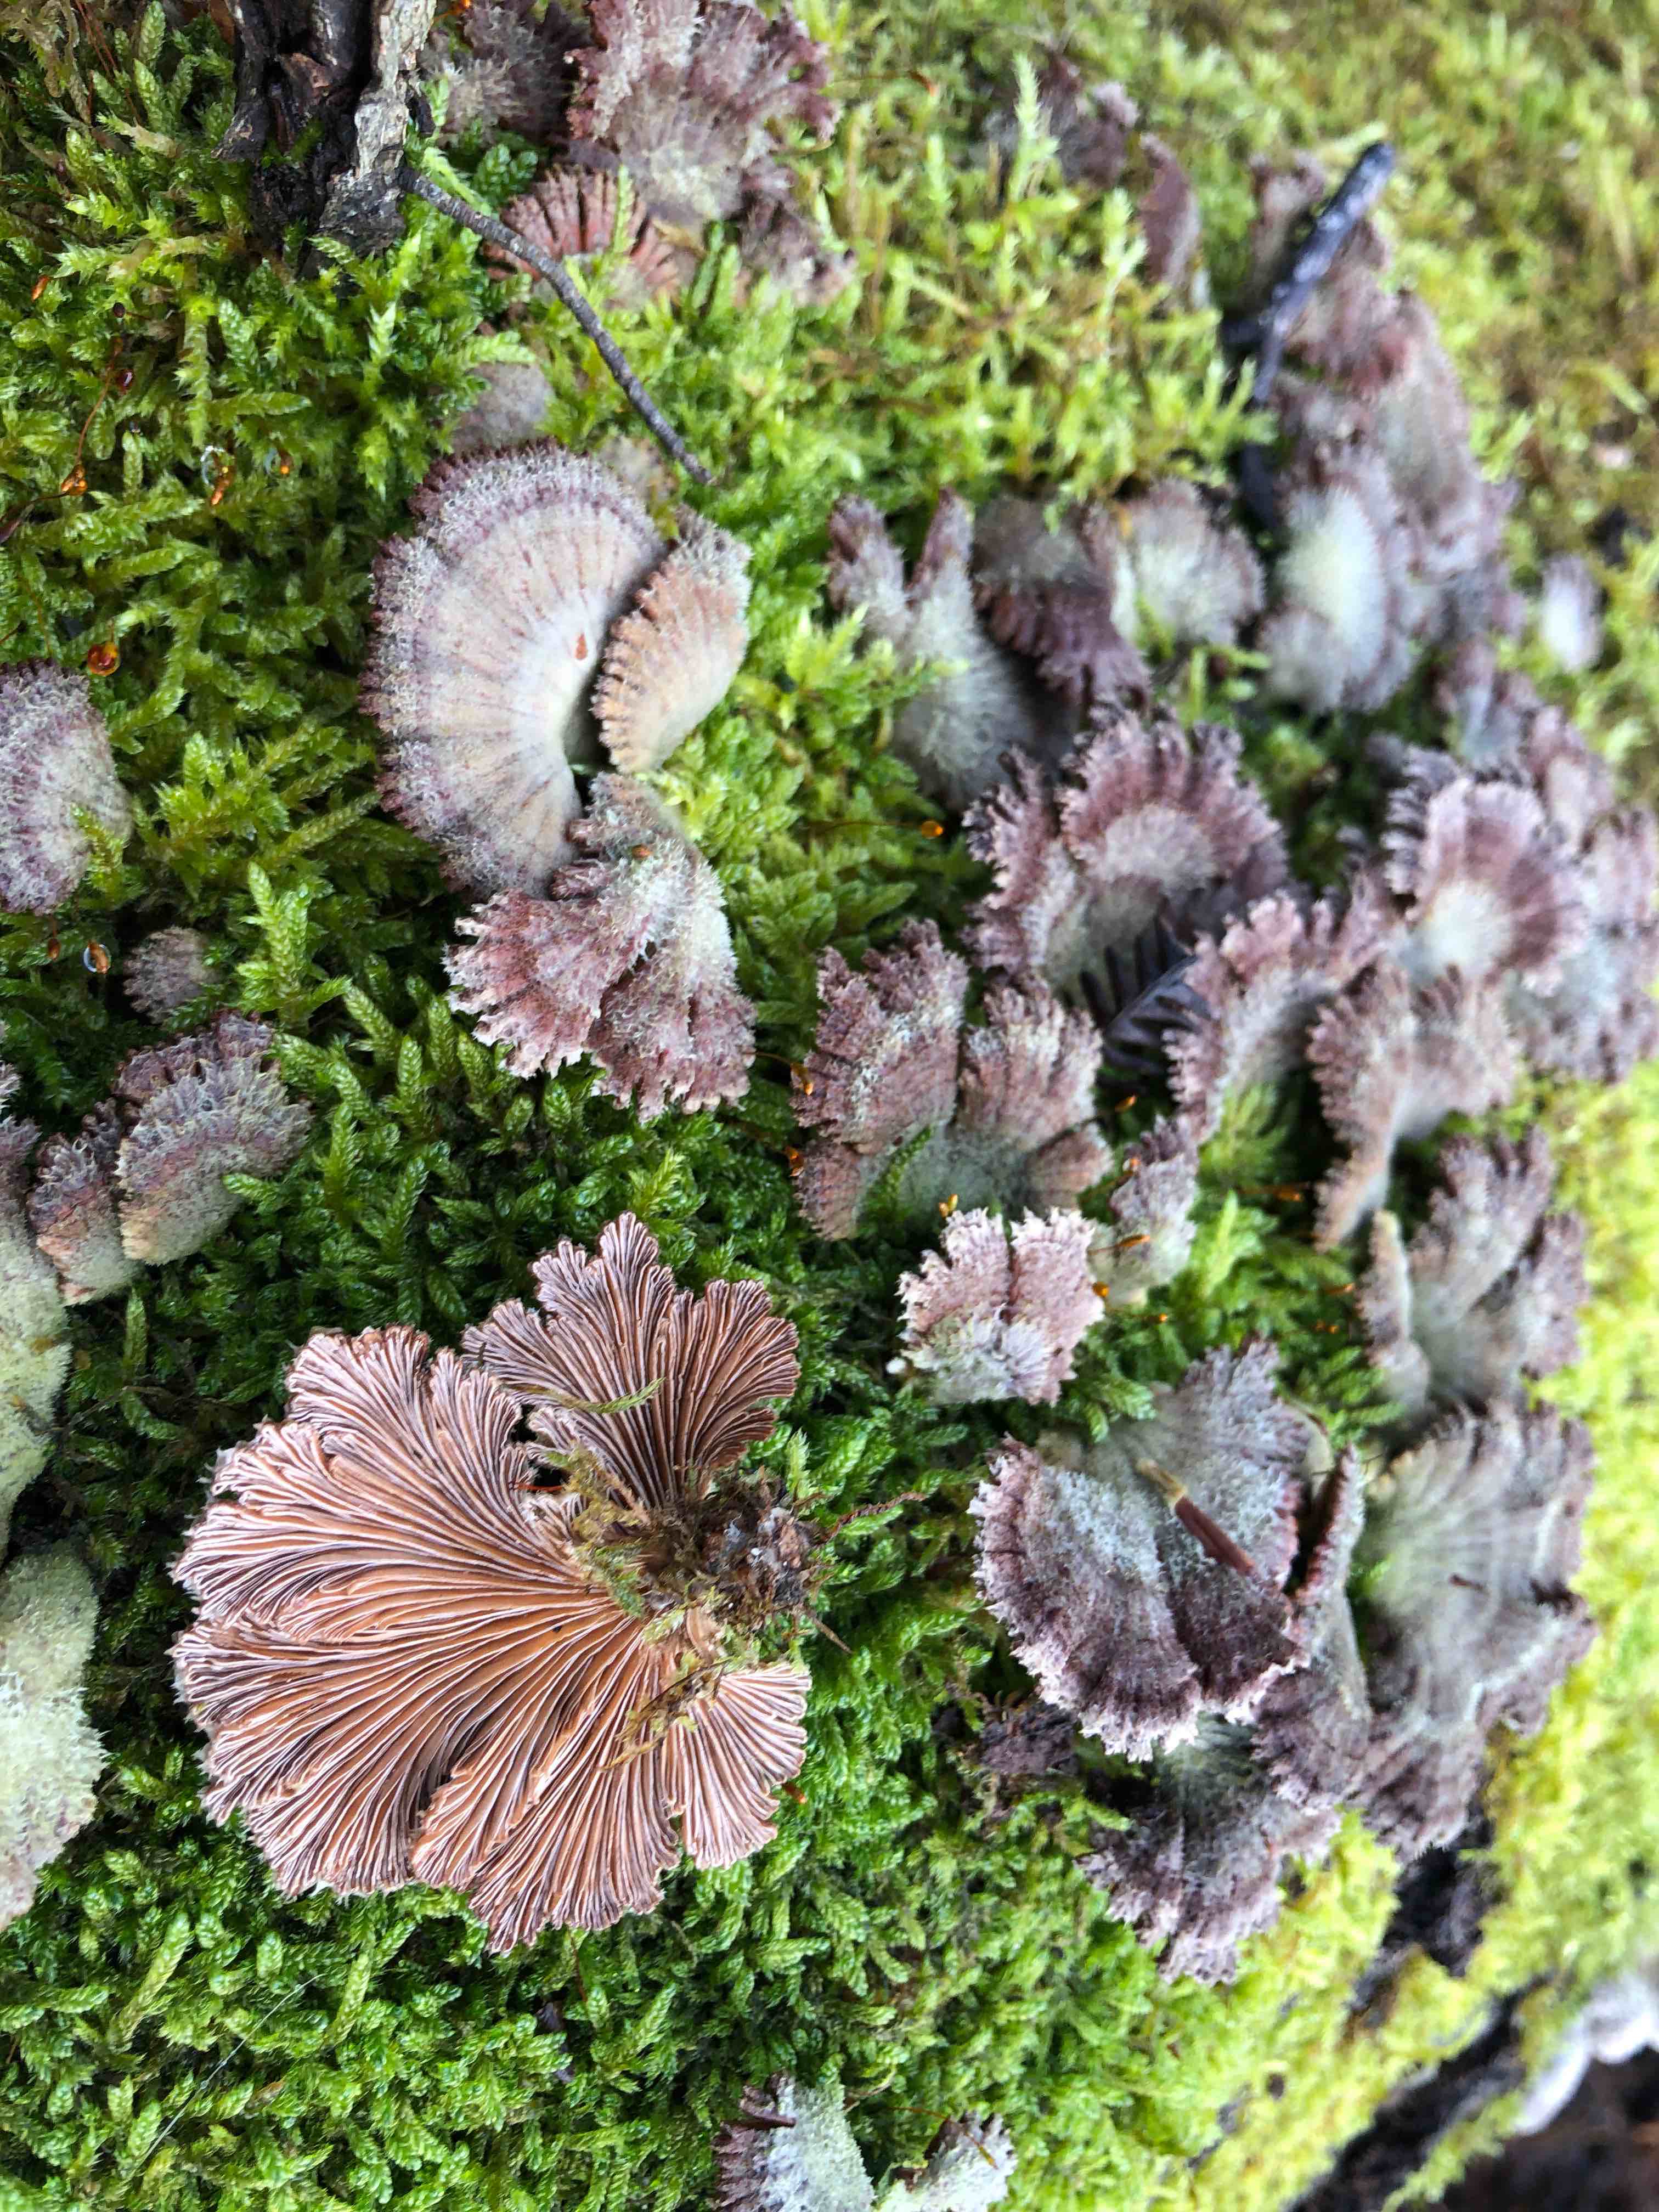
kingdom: Fungi
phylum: Basidiomycota
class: Agaricomycetes
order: Agaricales
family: Schizophyllaceae
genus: Schizophyllum
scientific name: Schizophyllum commune
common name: kløvblad
